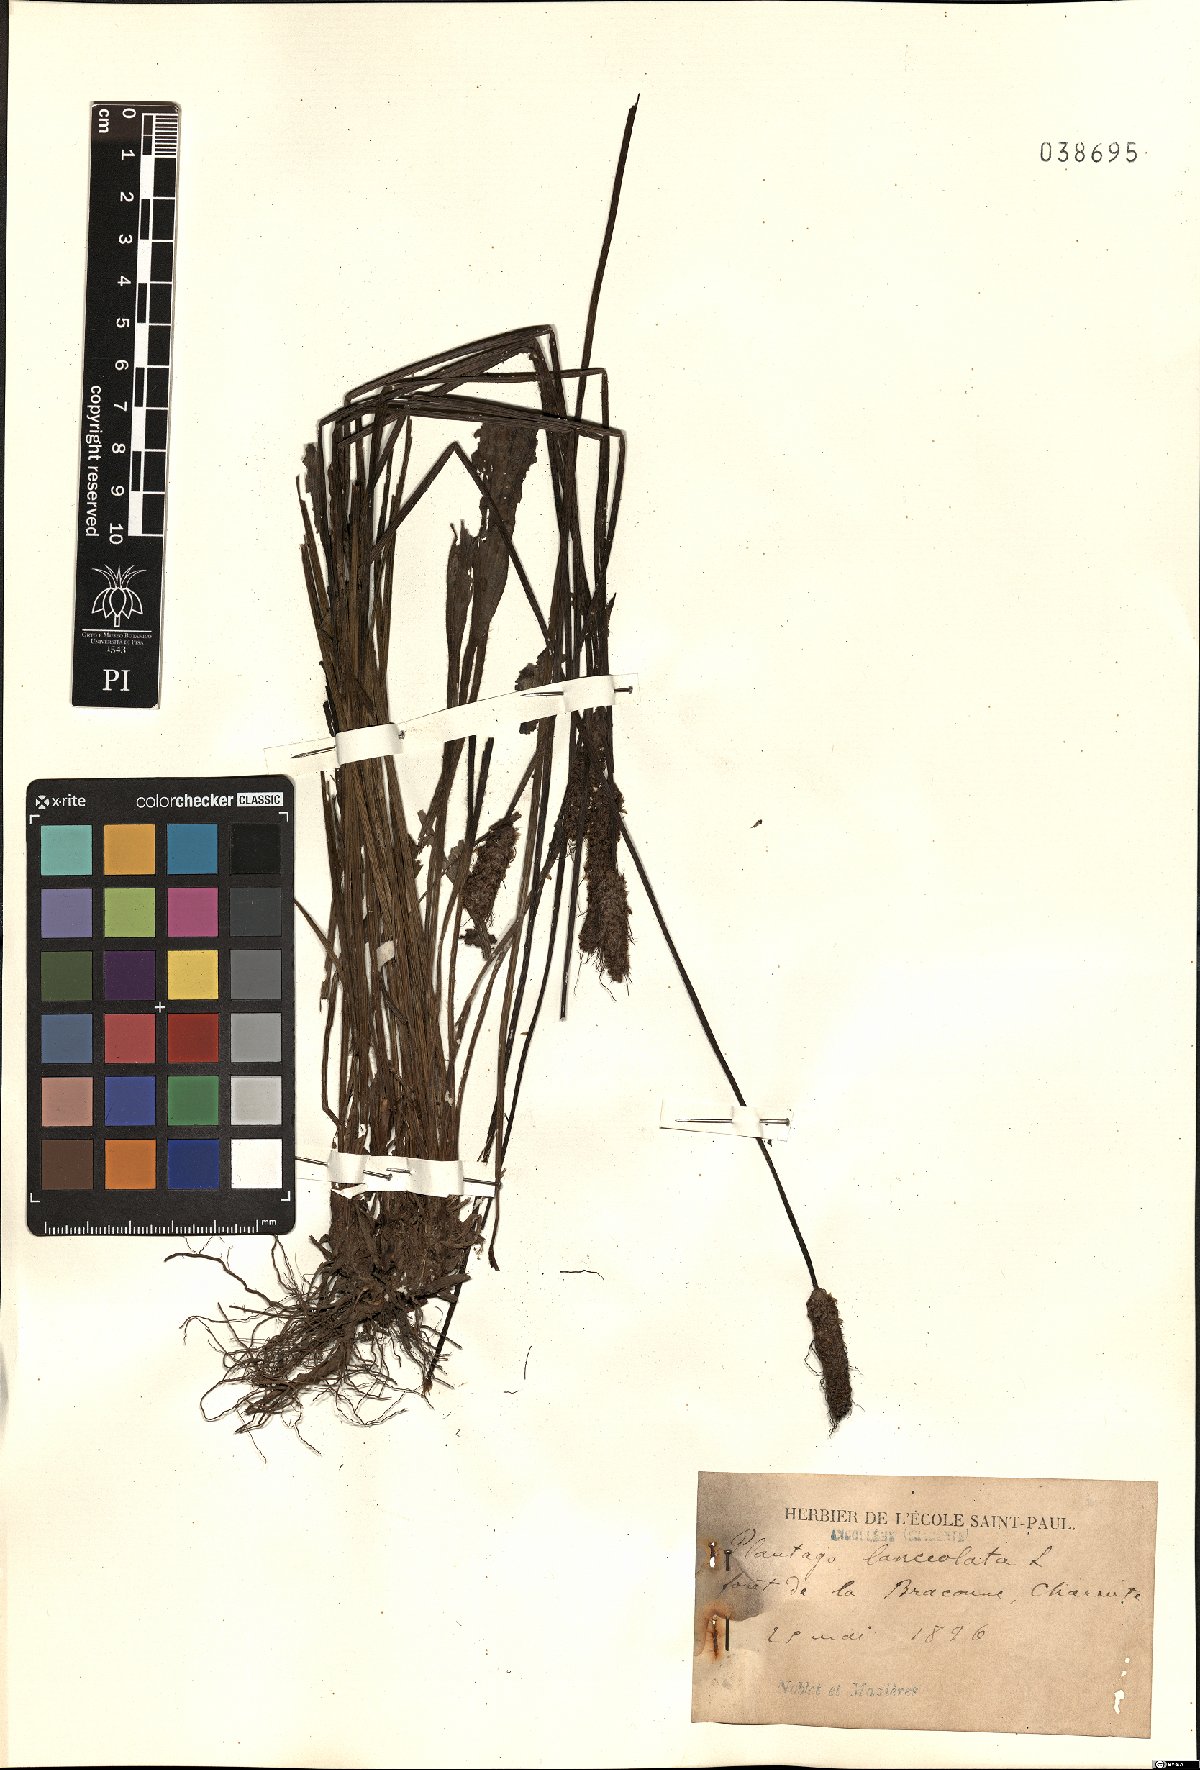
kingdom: Plantae
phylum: Tracheophyta
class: Magnoliopsida
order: Lamiales
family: Plantaginaceae
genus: Plantago
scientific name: Plantago lanceolata
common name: Ribwort plantain
